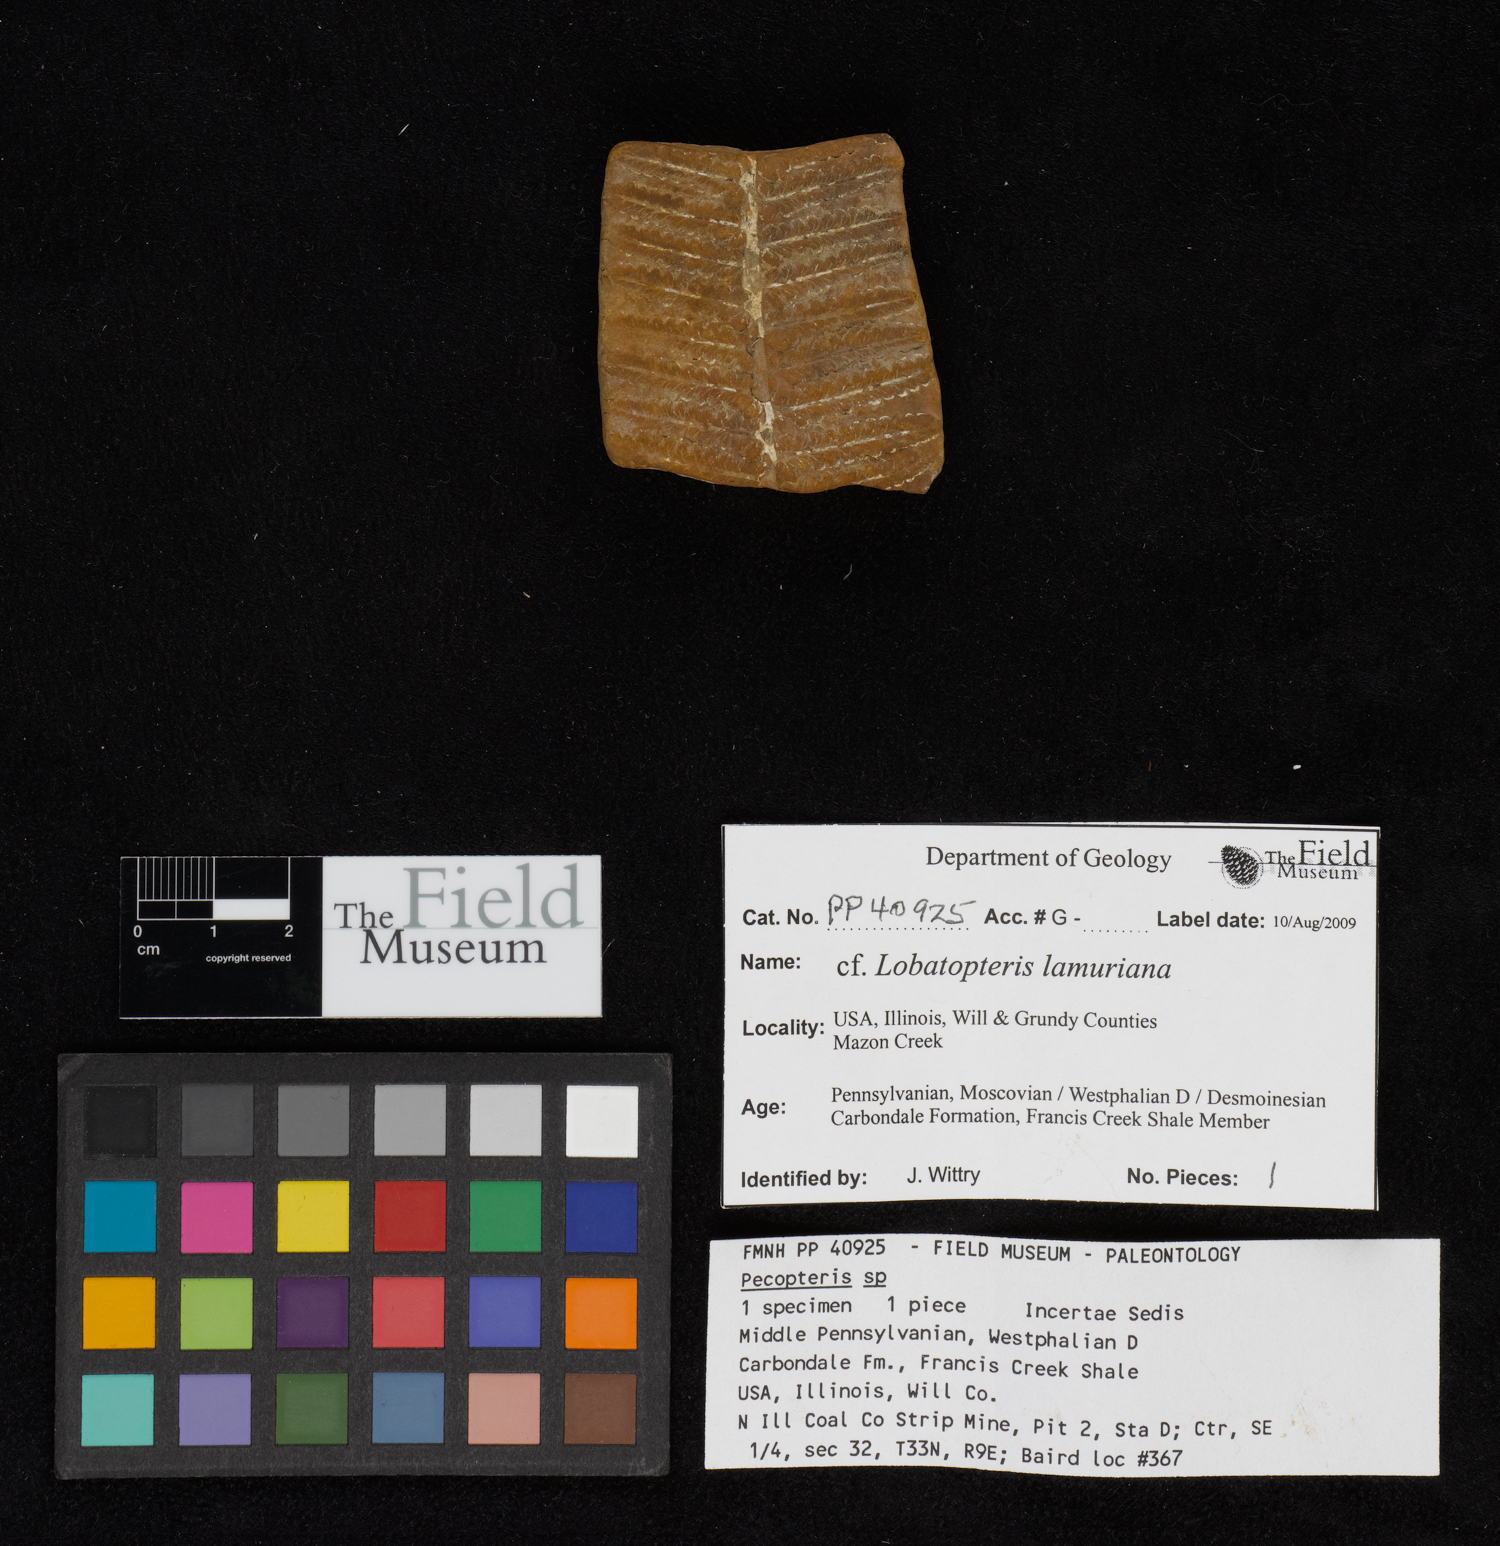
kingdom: Plantae
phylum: Tracheophyta
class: Polypodiopsida
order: Marattiales
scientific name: Marattiales
